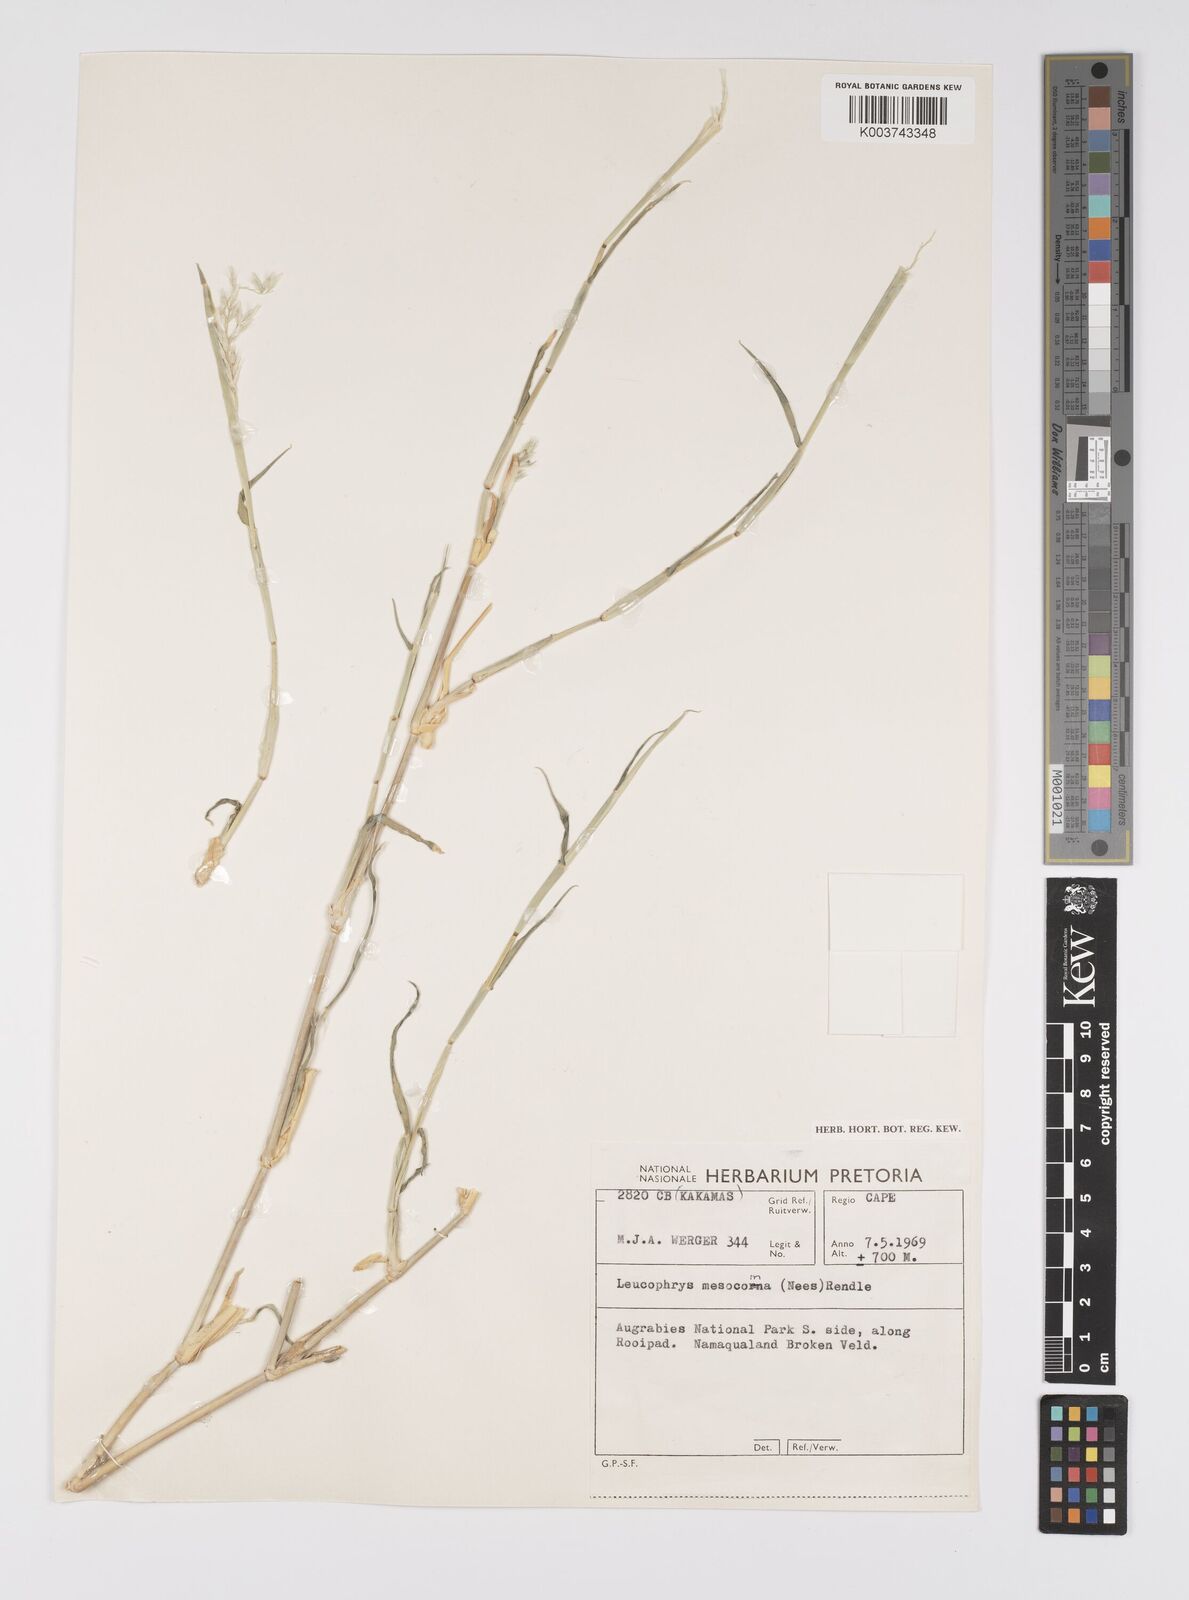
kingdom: Plantae
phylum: Tracheophyta
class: Liliopsida
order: Poales
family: Poaceae
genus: Urochloa
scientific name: Urochloa Brachiaria mesocoma
